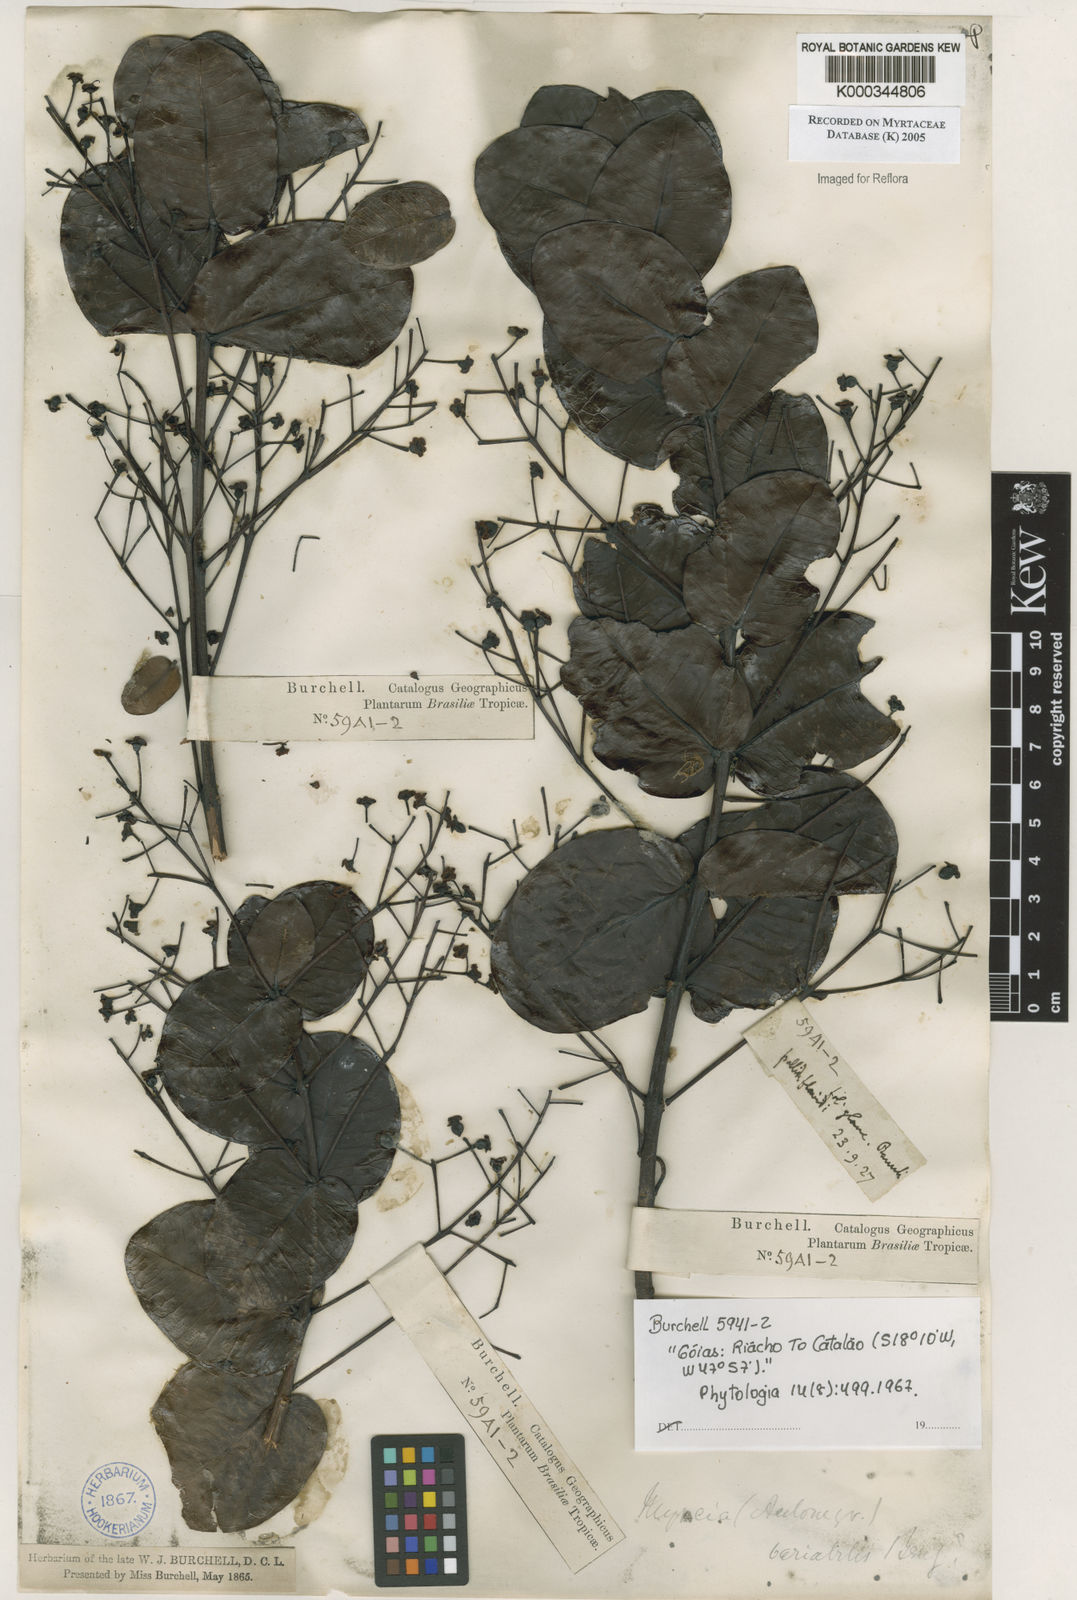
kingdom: Plantae
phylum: Tracheophyta
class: Magnoliopsida
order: Myrtales
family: Myrtaceae
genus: Myrcia
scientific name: Myrcia variabilis
